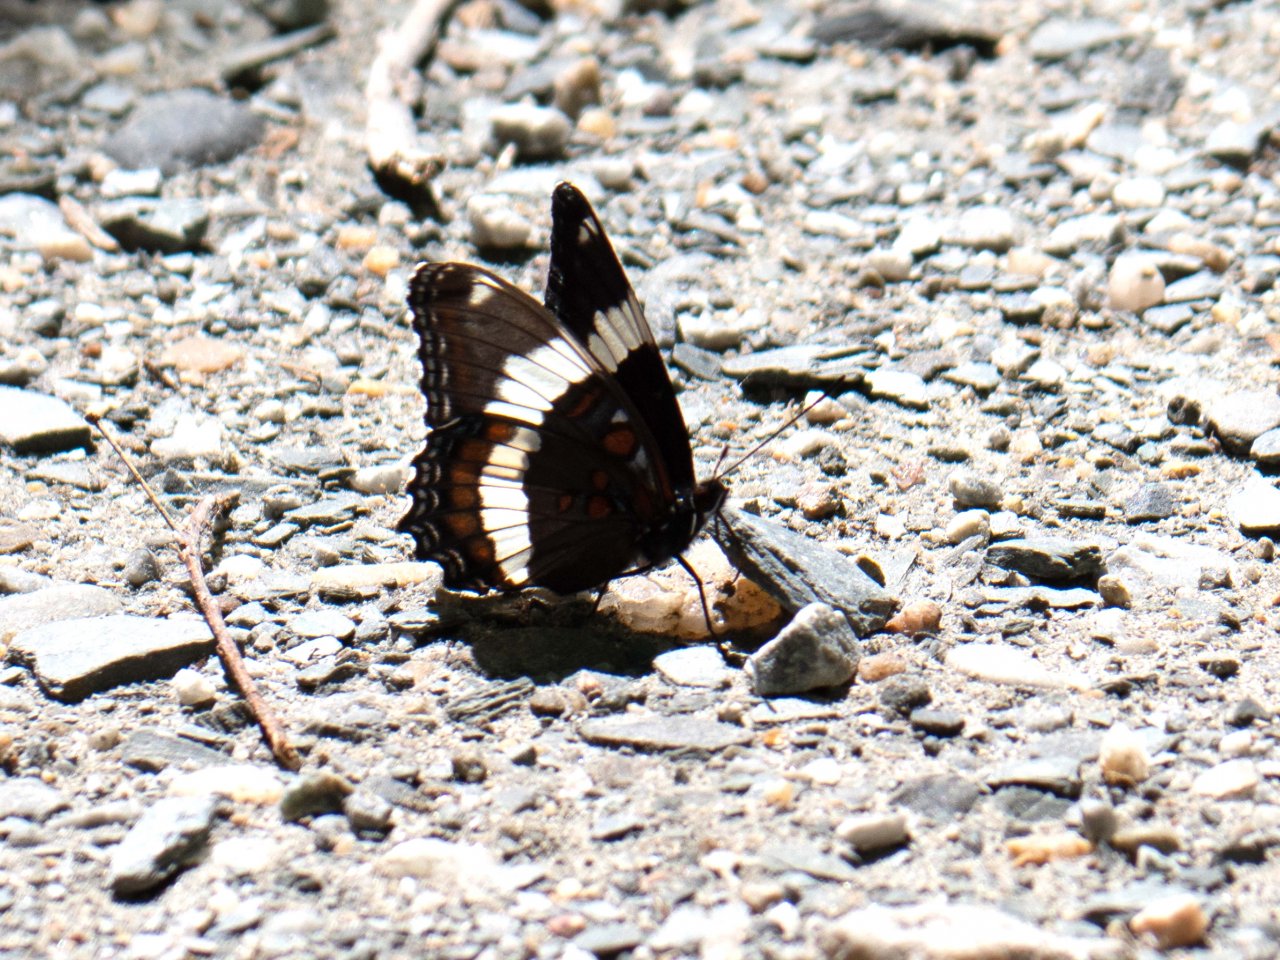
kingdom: Animalia
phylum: Arthropoda
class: Insecta
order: Lepidoptera
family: Nymphalidae
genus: Limenitis
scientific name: Limenitis arthemis
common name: Red-spotted Admiral
